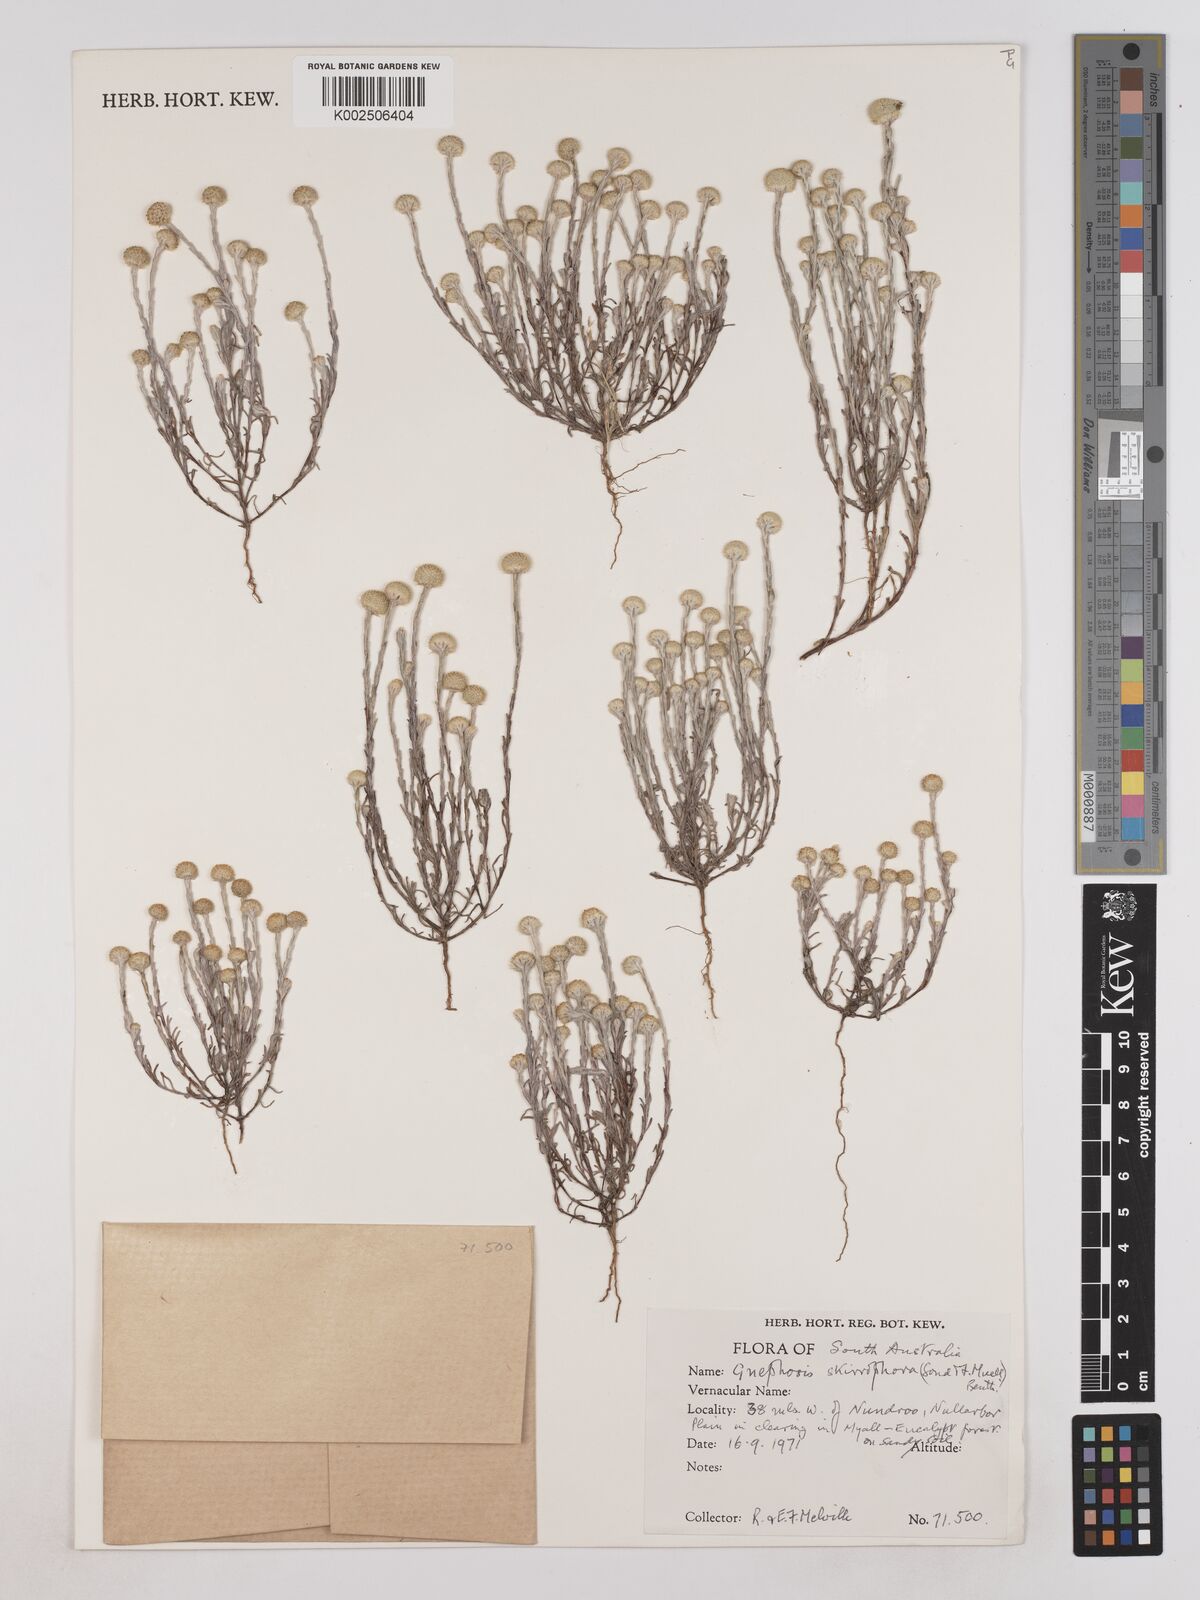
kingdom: Plantae
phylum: Tracheophyta
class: Magnoliopsida
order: Asterales
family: Asteraceae
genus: Trichanthodium
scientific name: Trichanthodium skirrophorum
